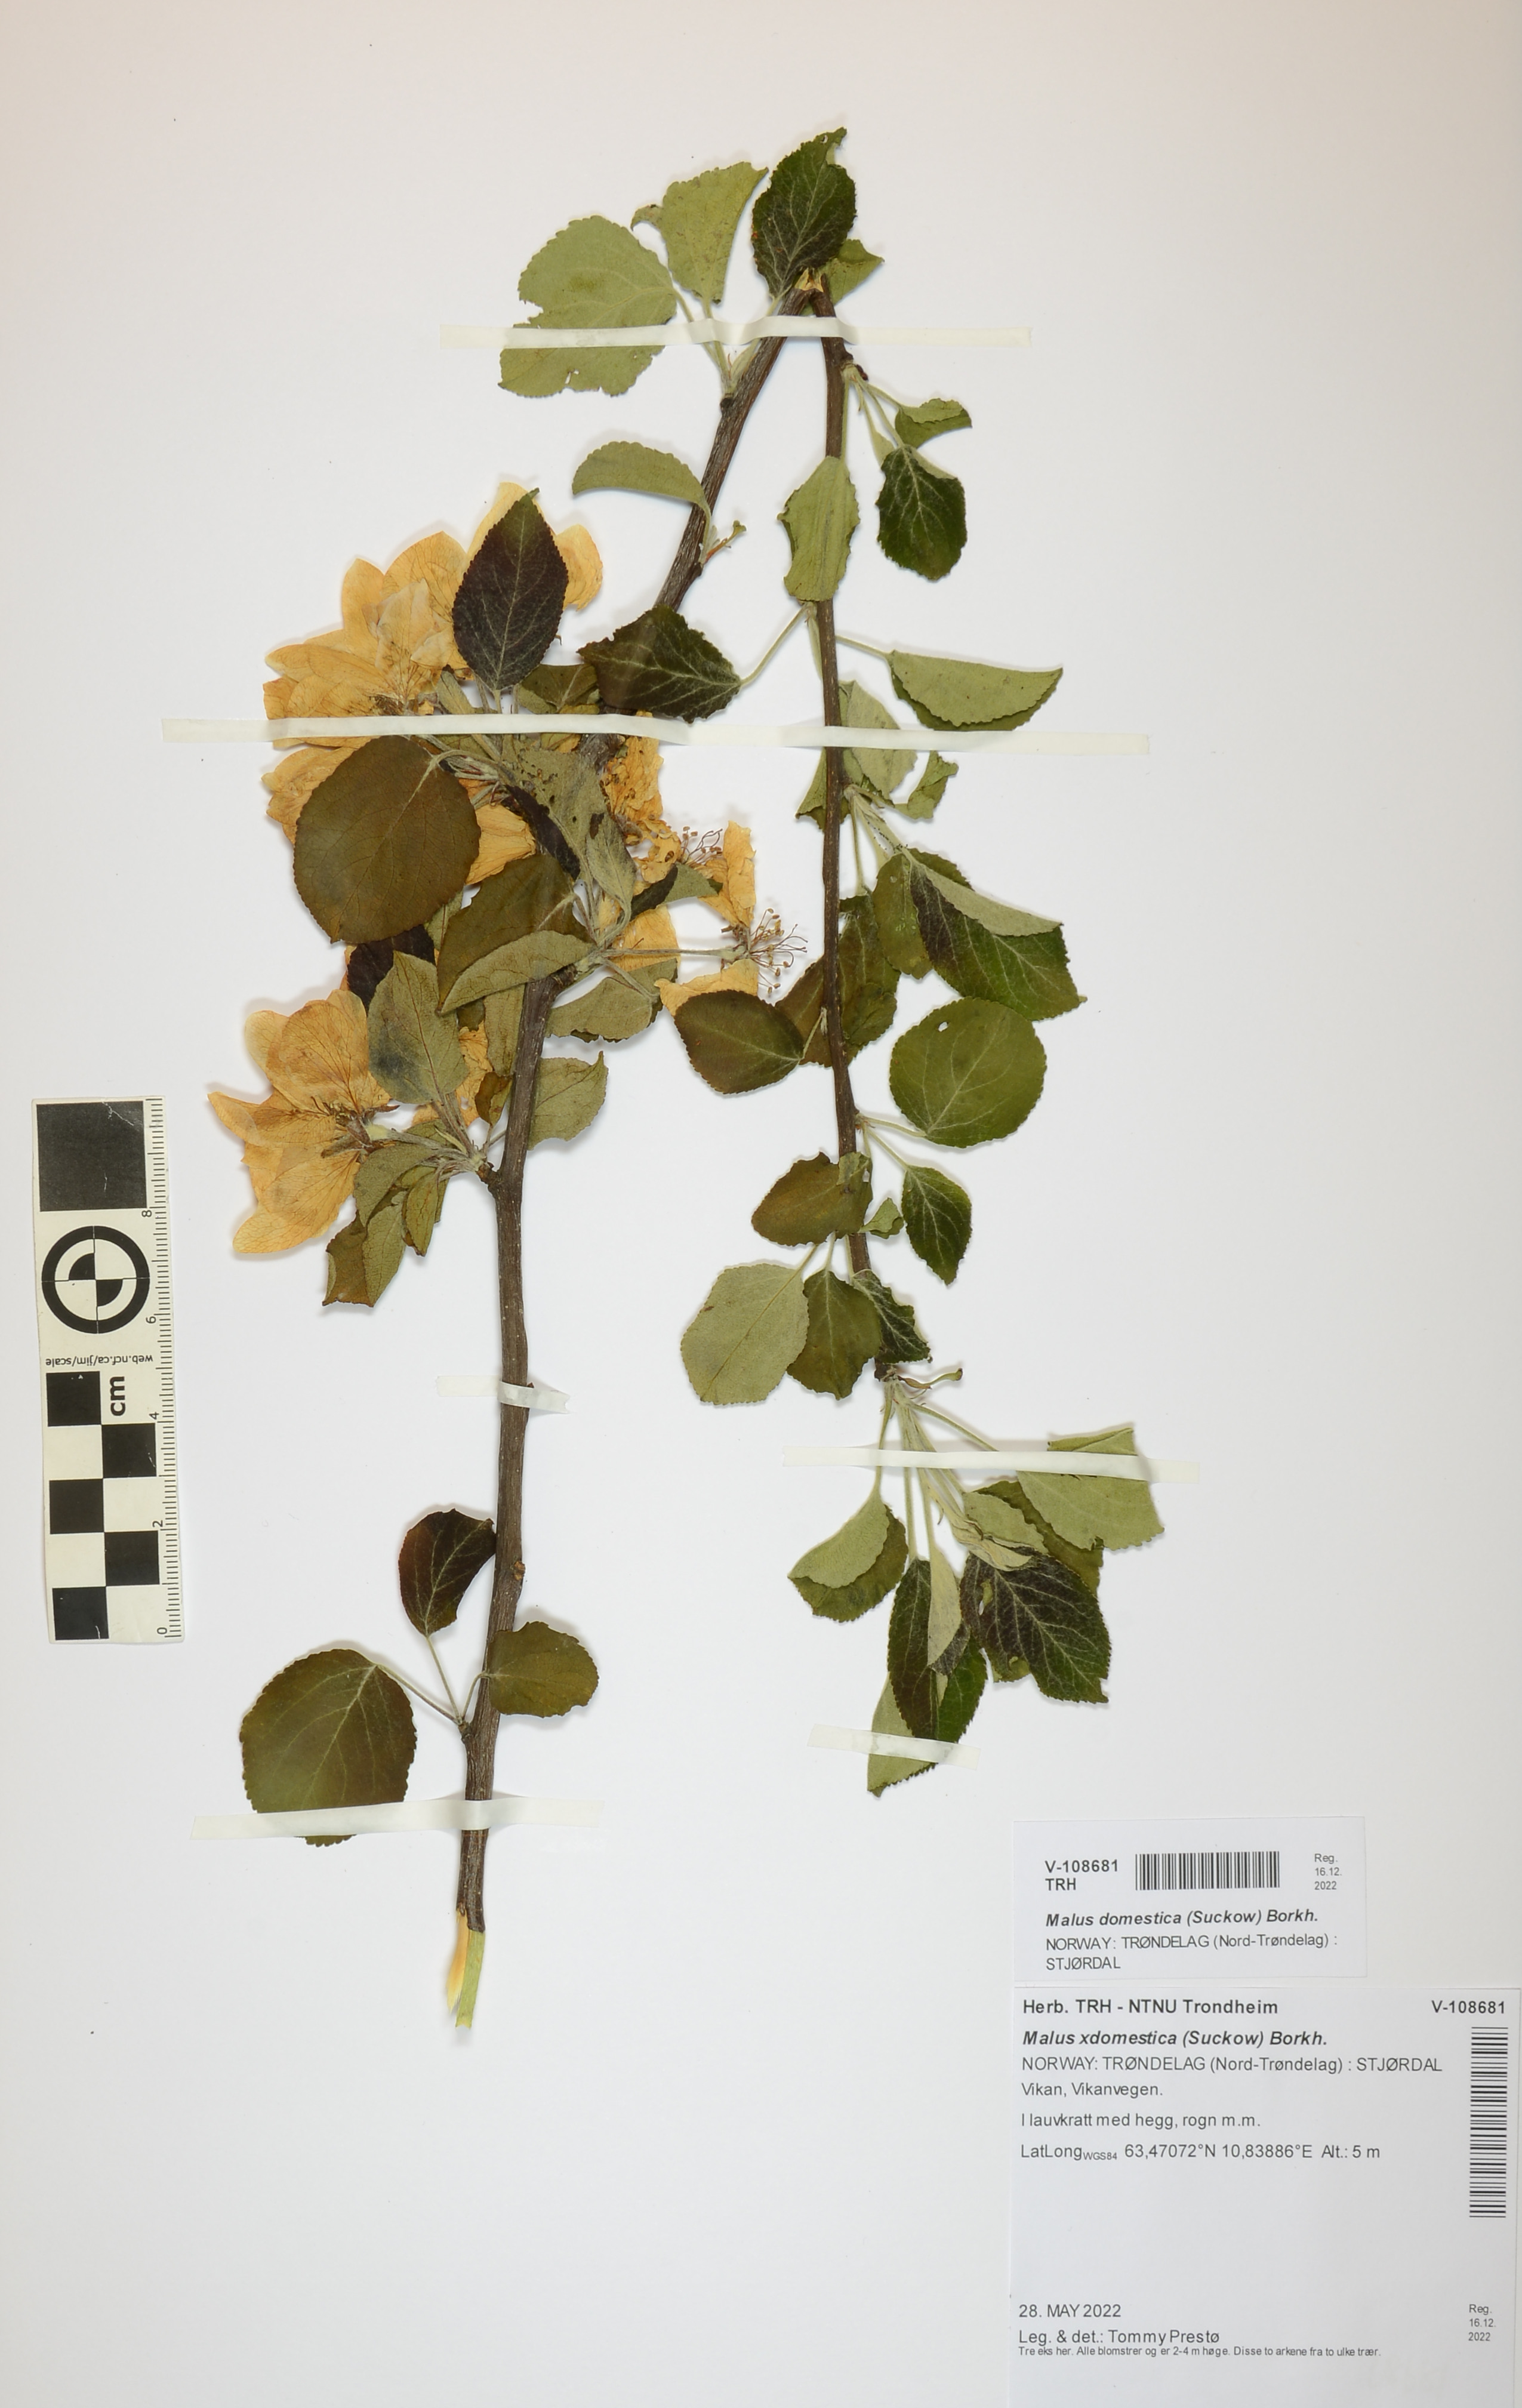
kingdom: Plantae
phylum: Tracheophyta
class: Magnoliopsida
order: Rosales
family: Rosaceae
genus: Malus
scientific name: Malus domestica
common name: Apple
